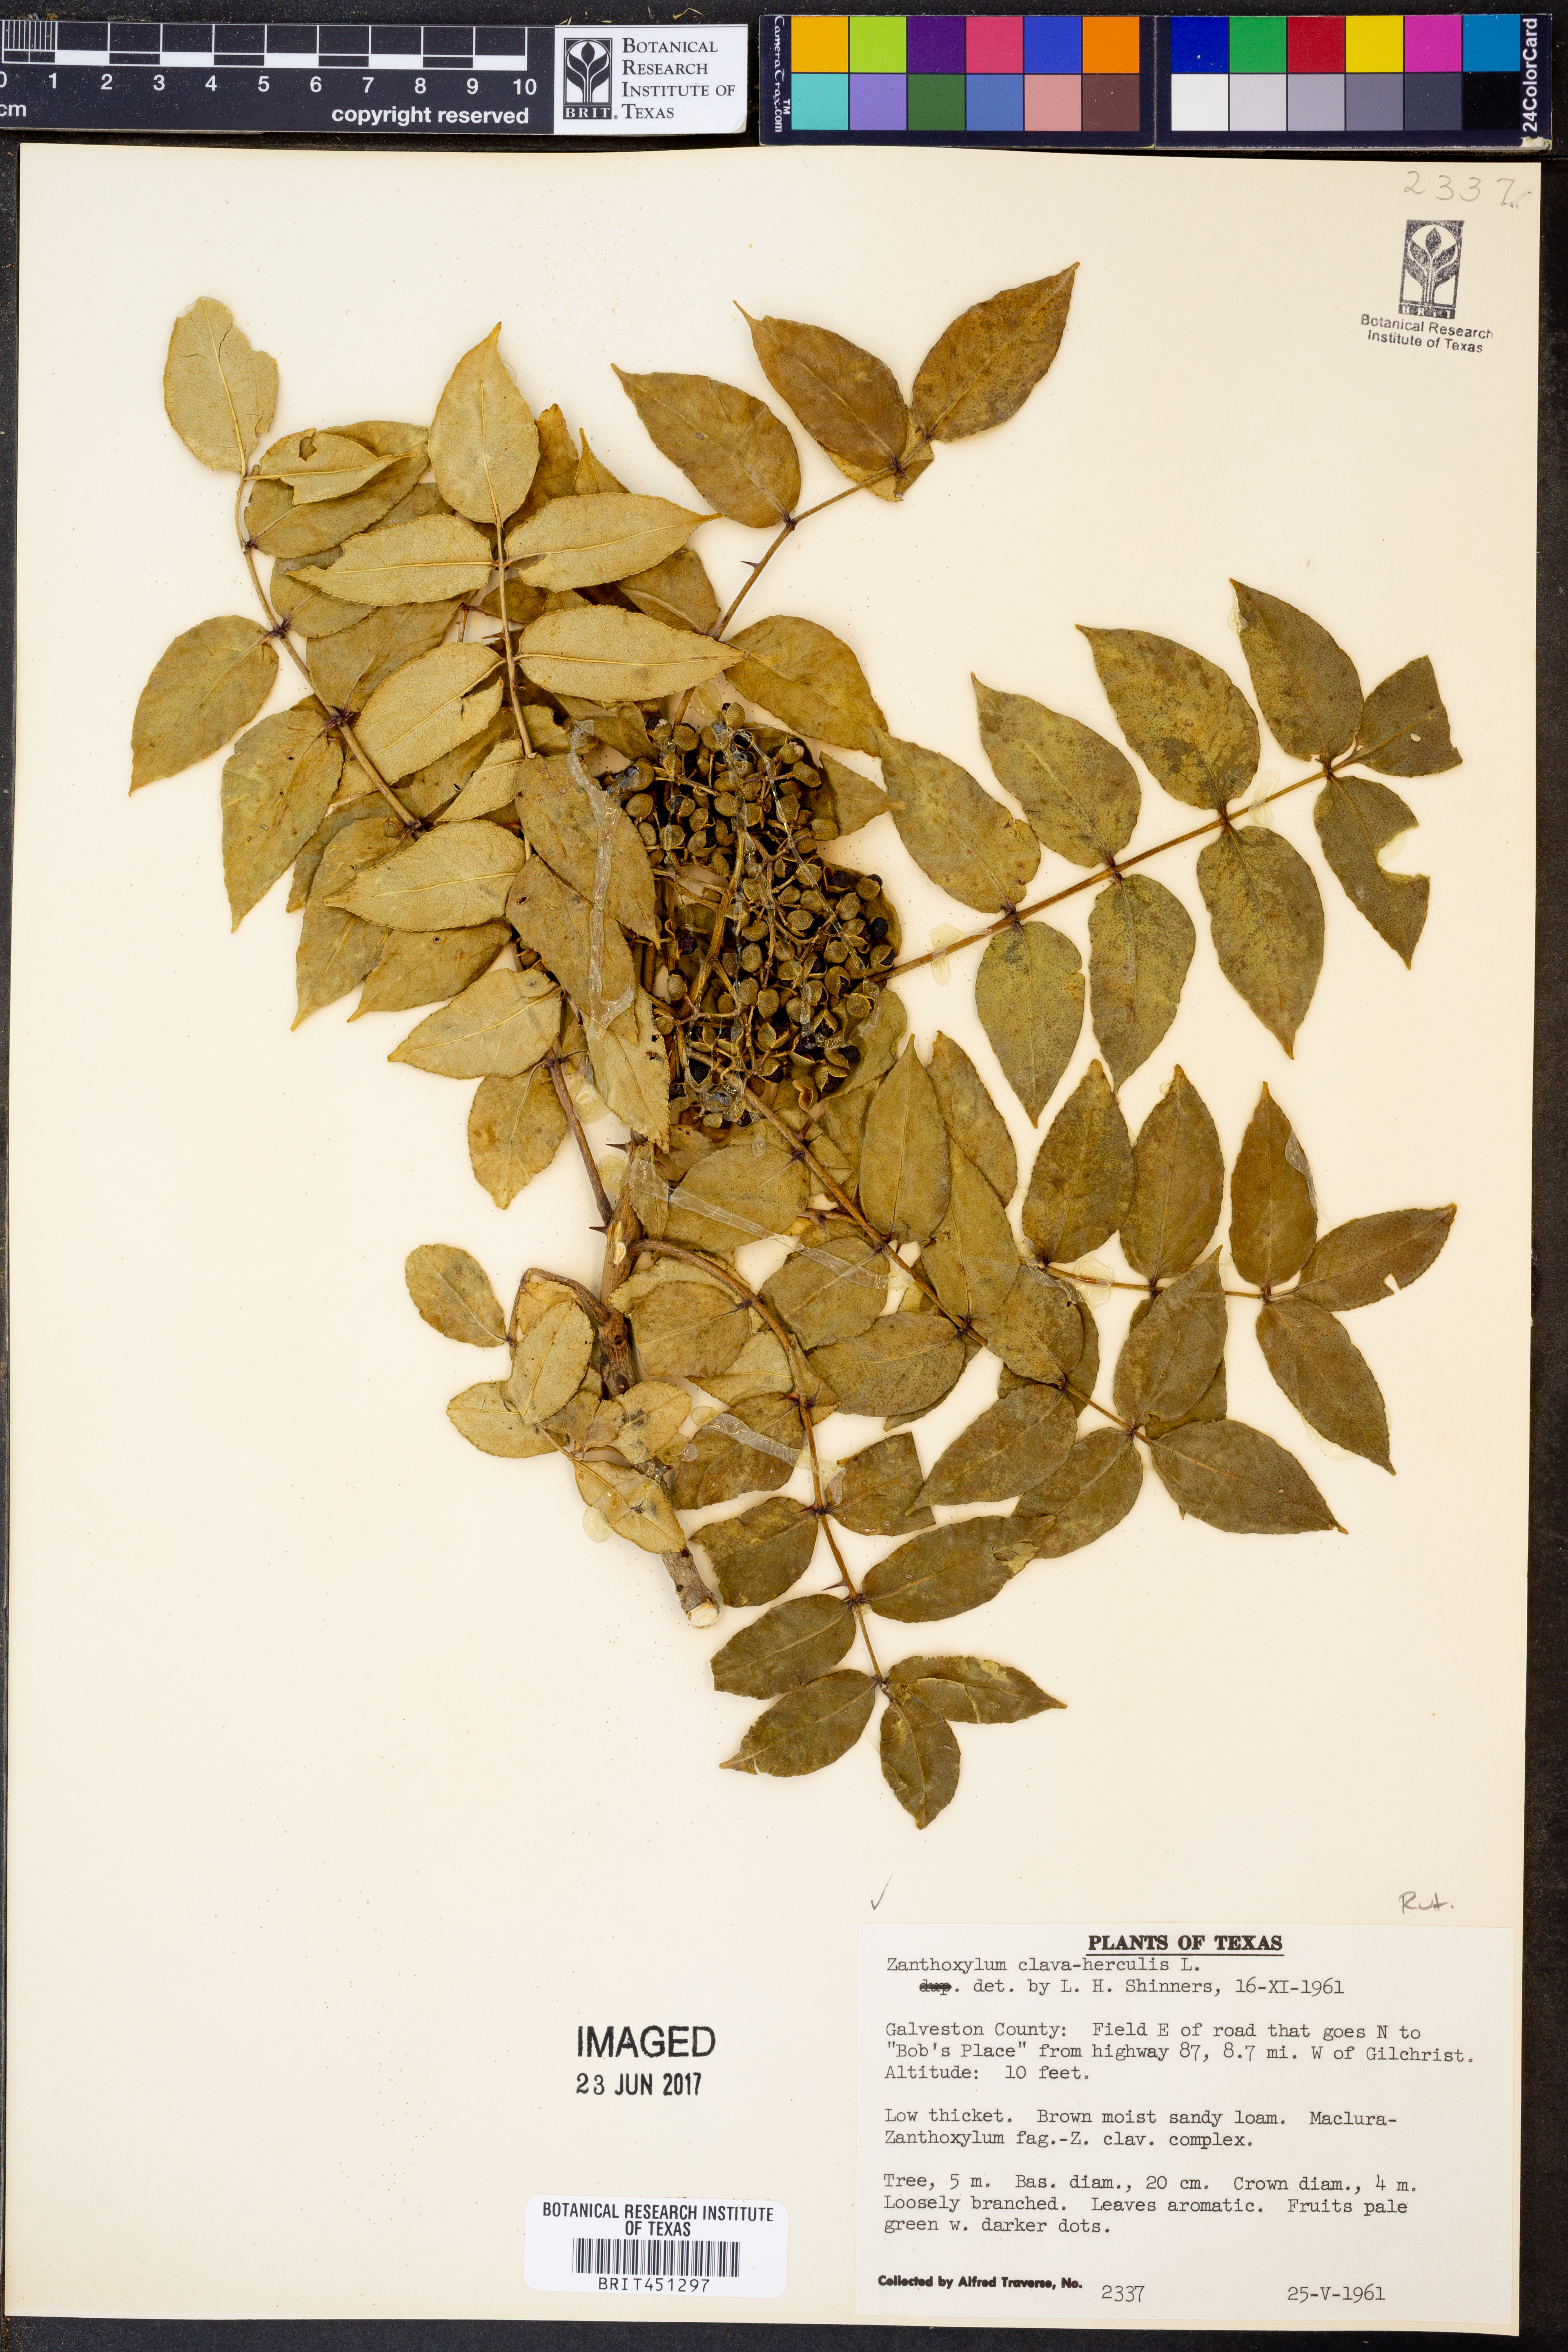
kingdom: Plantae
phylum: Tracheophyta
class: Magnoliopsida
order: Sapindales
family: Rutaceae
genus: Zanthoxylum
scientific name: Zanthoxylum avicennae
